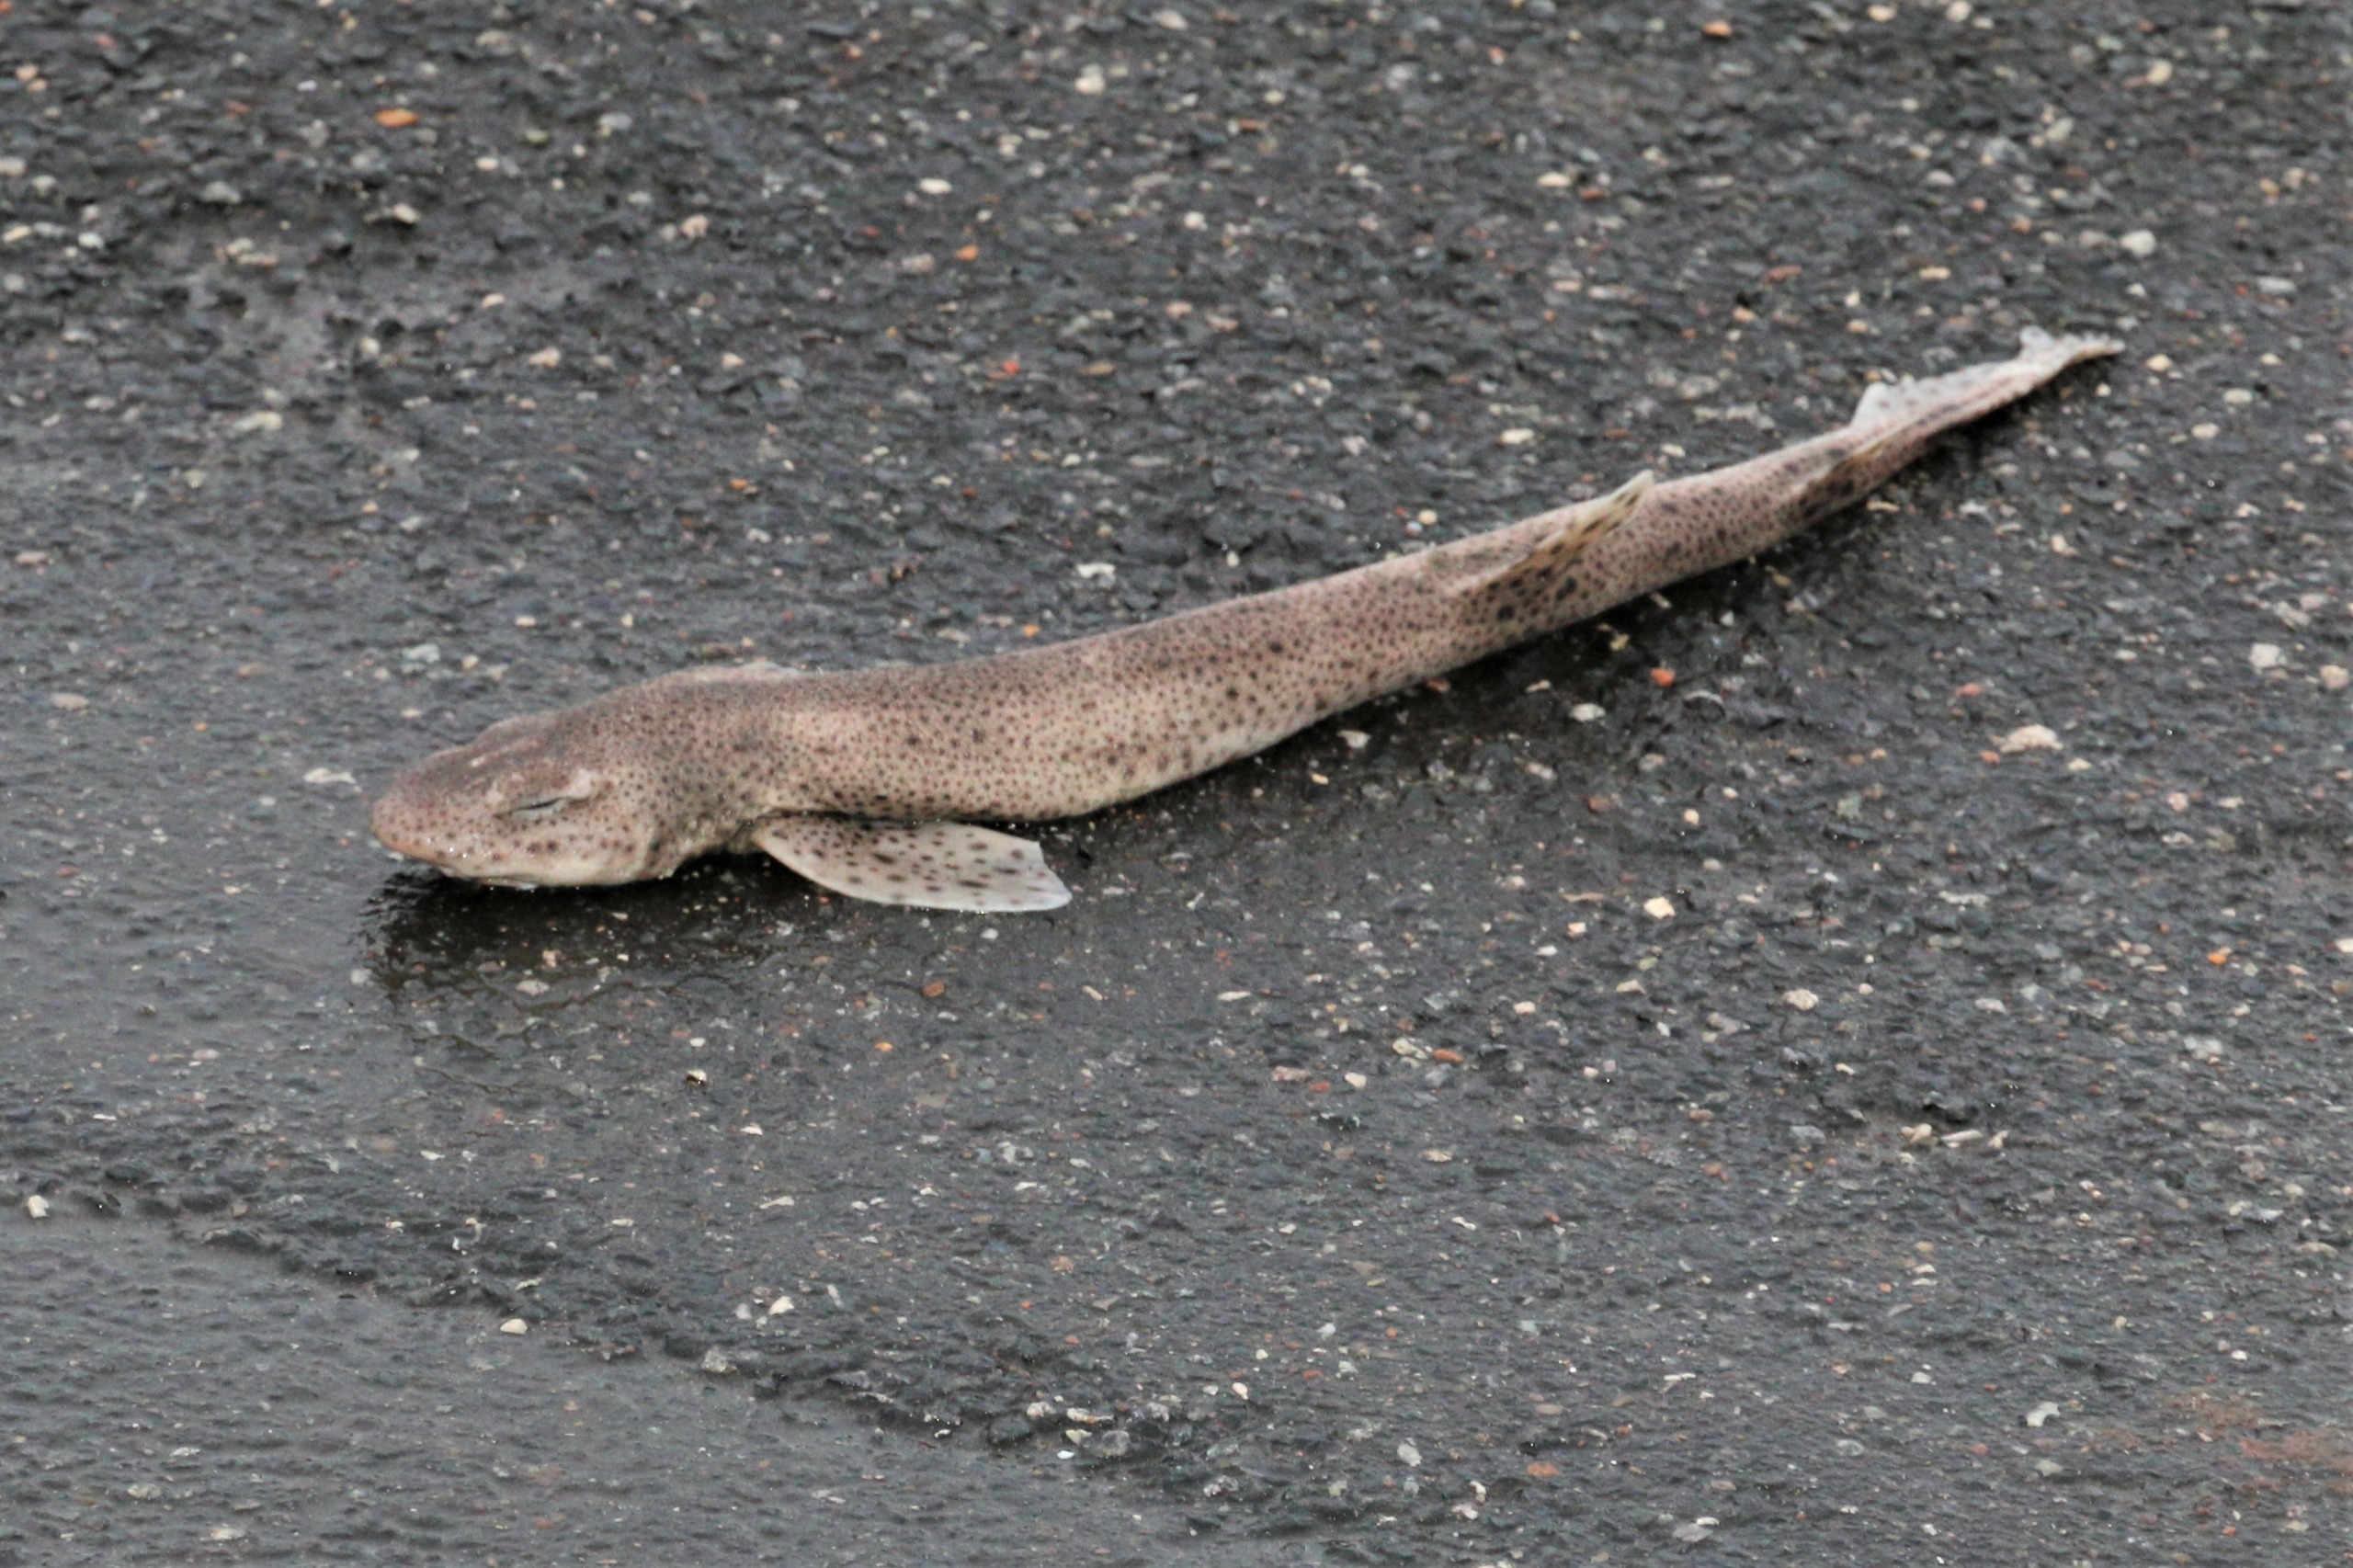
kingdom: Animalia
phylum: Chordata
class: Elasmobranchii
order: Carcharhiniformes
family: Scyliorhinidae
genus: Scyliorhinus
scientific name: Scyliorhinus canicula
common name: Småplettet rødhaj
